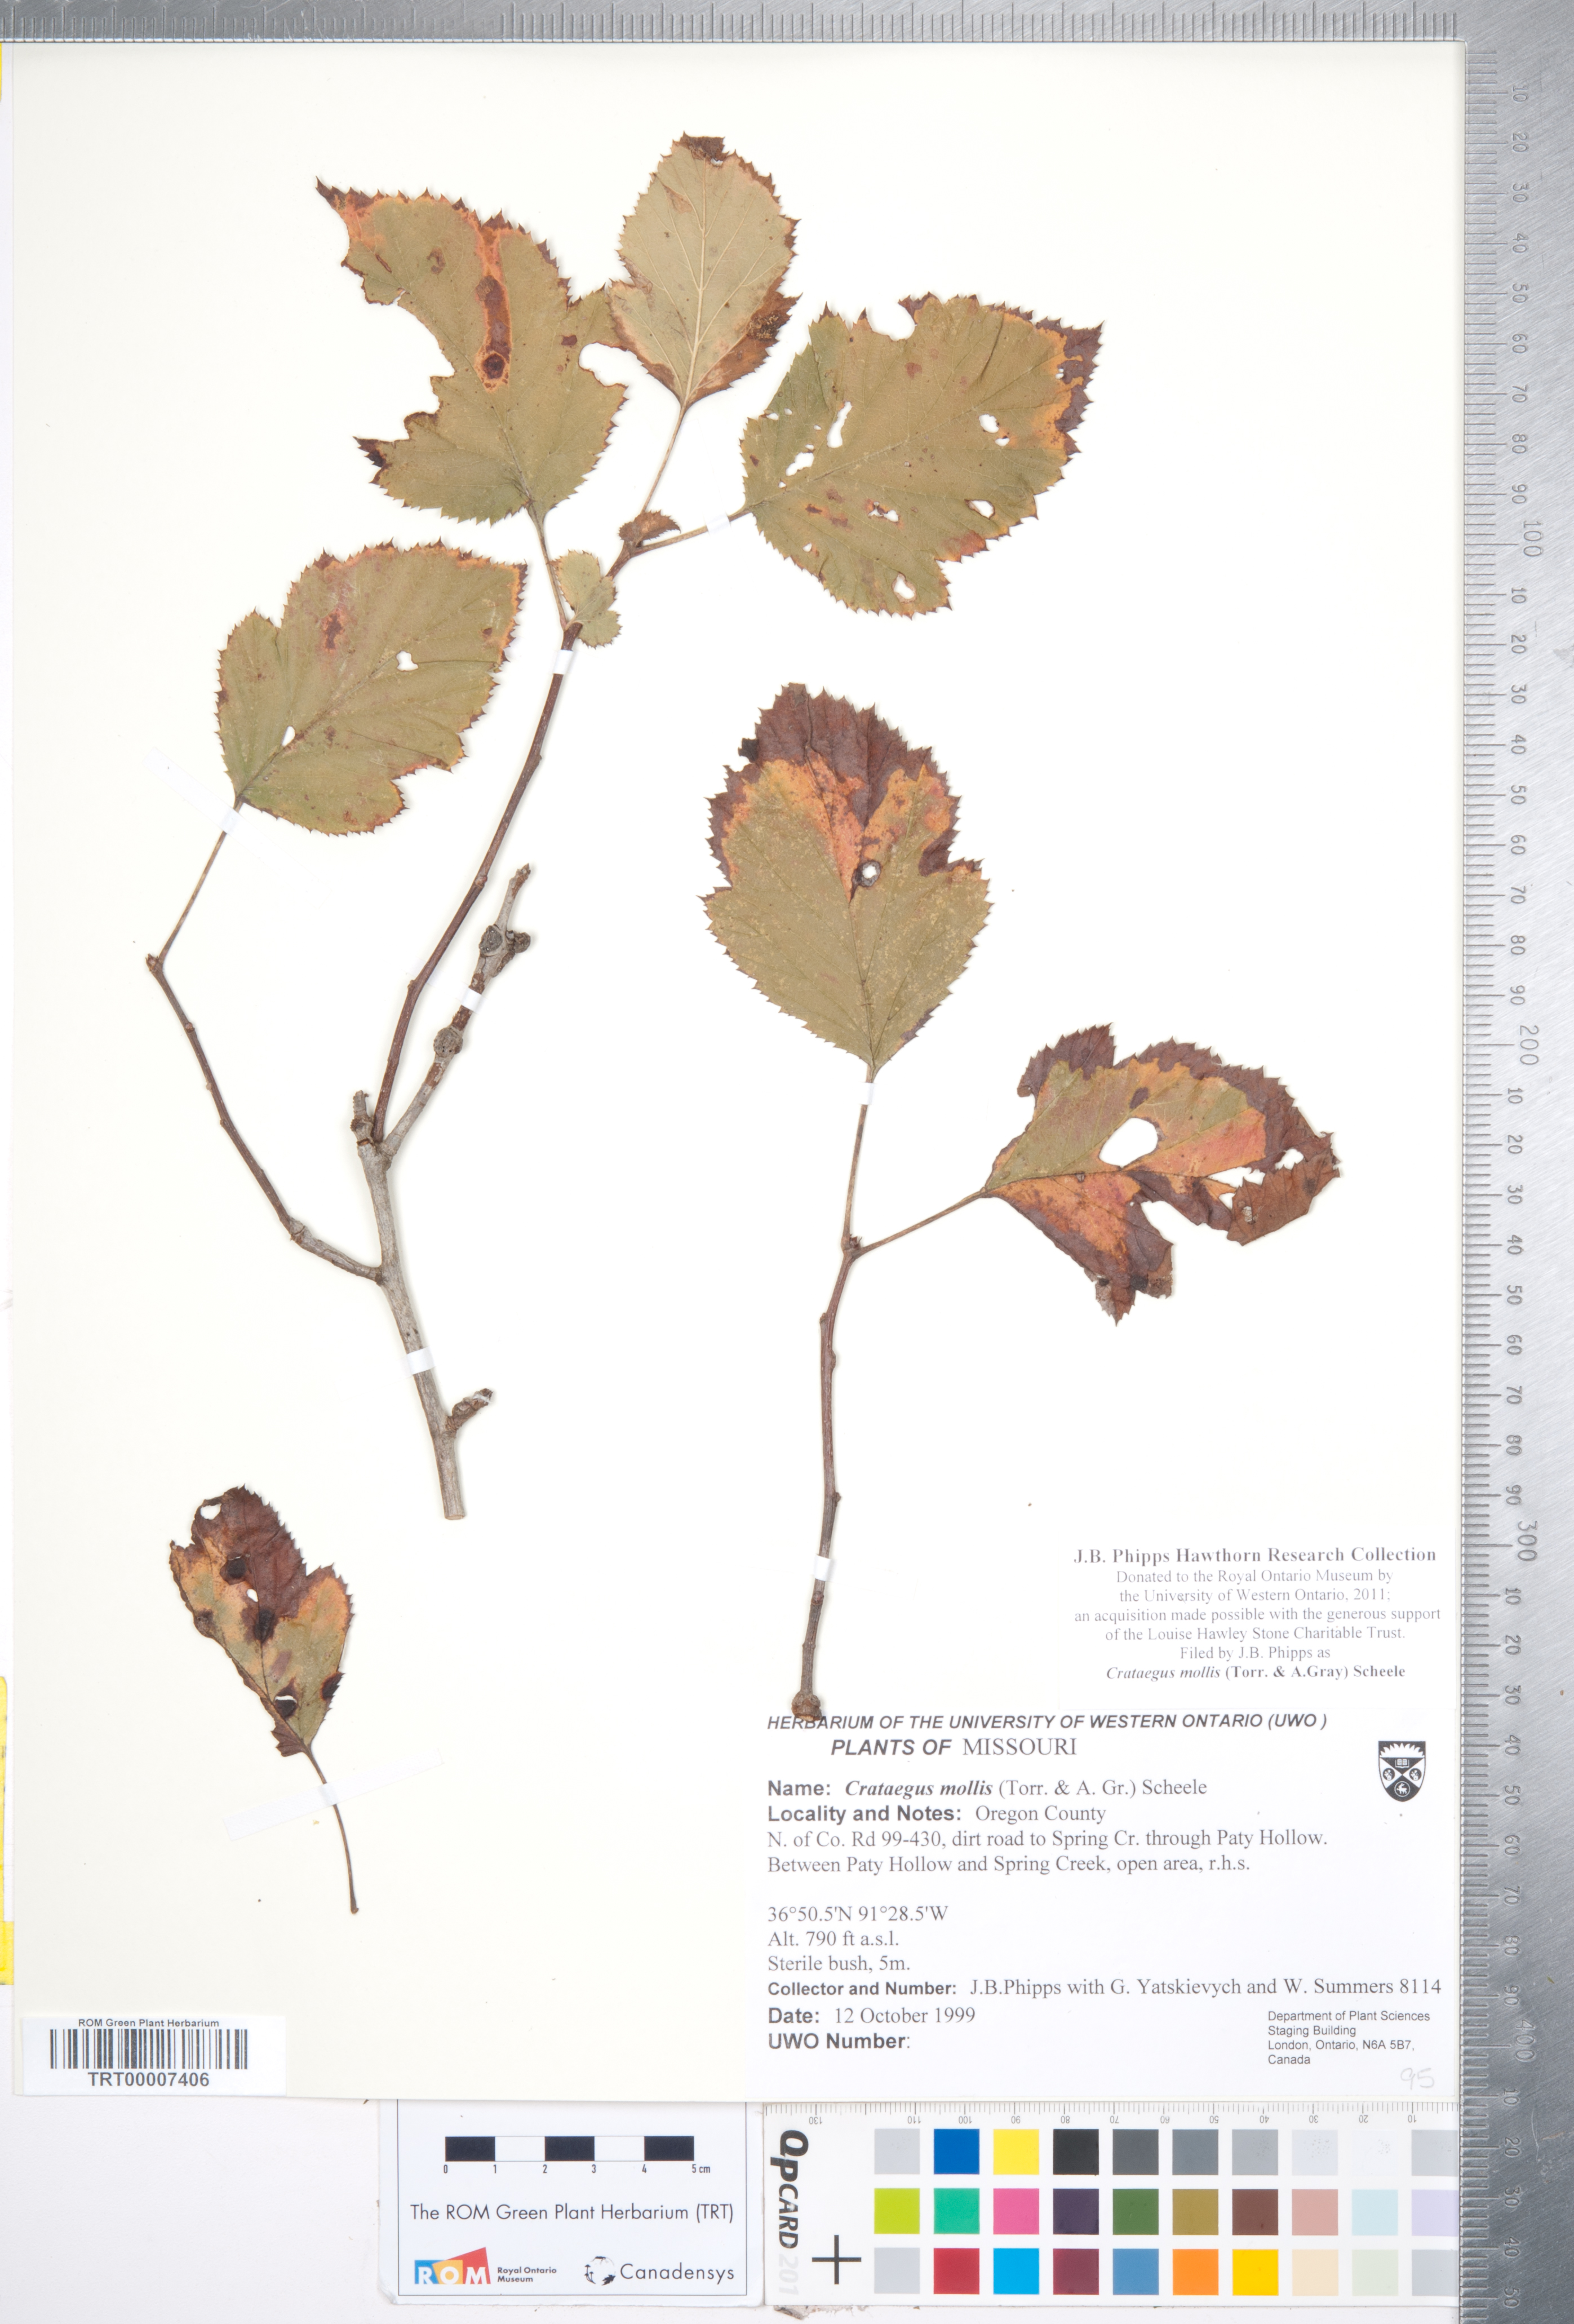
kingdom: Plantae
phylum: Tracheophyta
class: Magnoliopsida
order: Rosales
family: Rosaceae
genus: Crataegus
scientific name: Crataegus mollis
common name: Downy hawthorn
